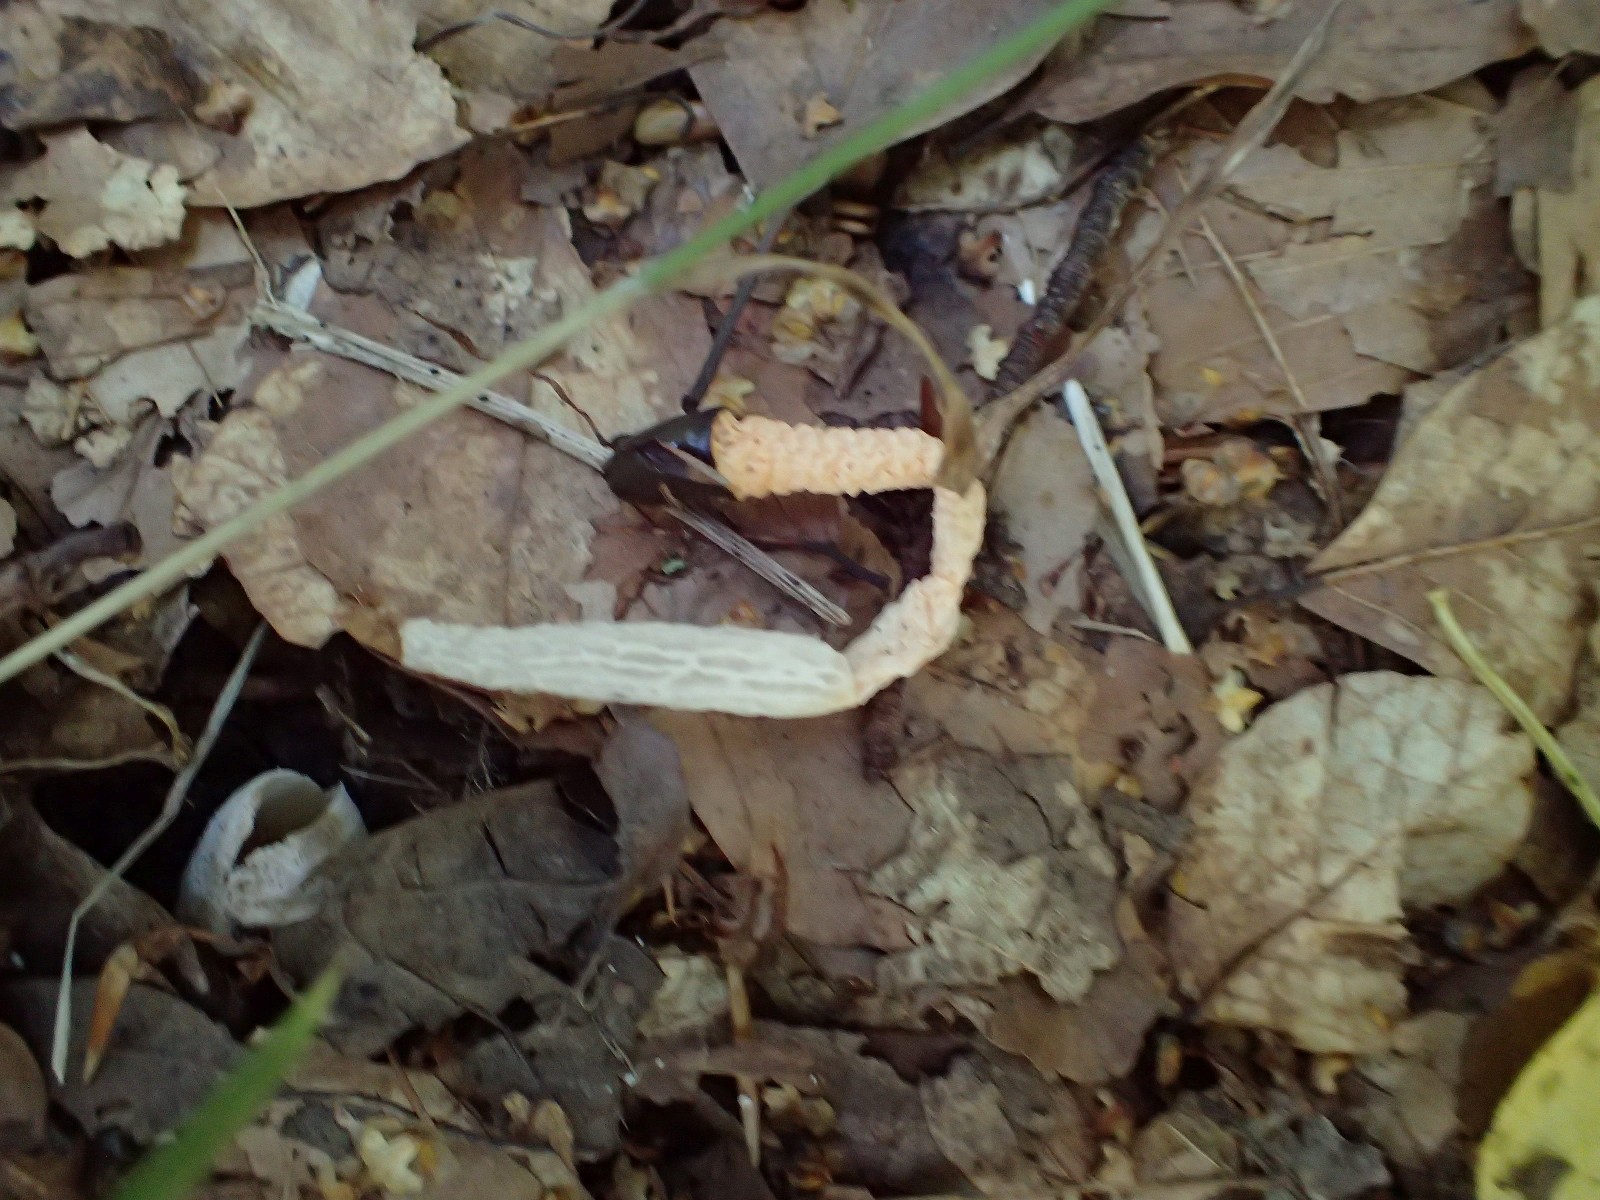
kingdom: Fungi
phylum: Basidiomycota
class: Agaricomycetes
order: Phallales
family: Phallaceae
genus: Mutinus
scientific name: Mutinus caninus
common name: hunde-stinksvamp
